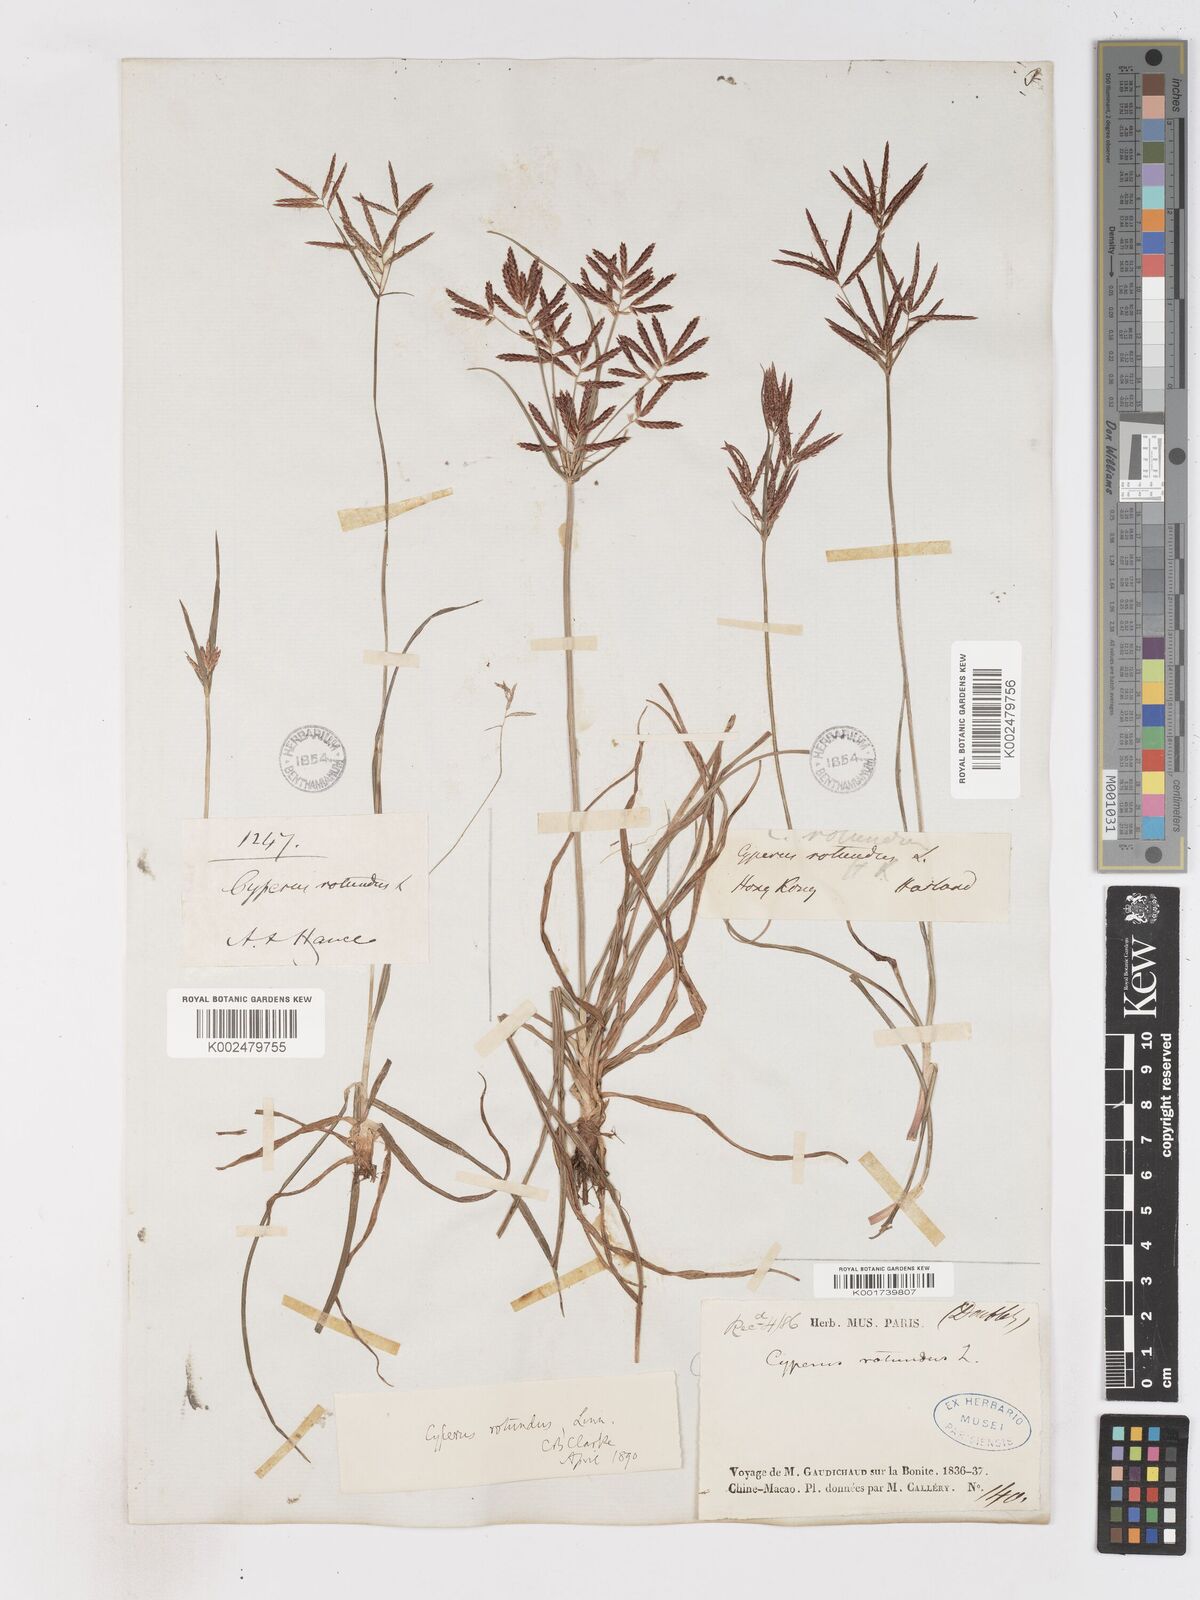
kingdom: Plantae
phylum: Tracheophyta
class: Liliopsida
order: Poales
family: Cyperaceae
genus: Cyperus
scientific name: Cyperus rotundus
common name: Nutgrass
